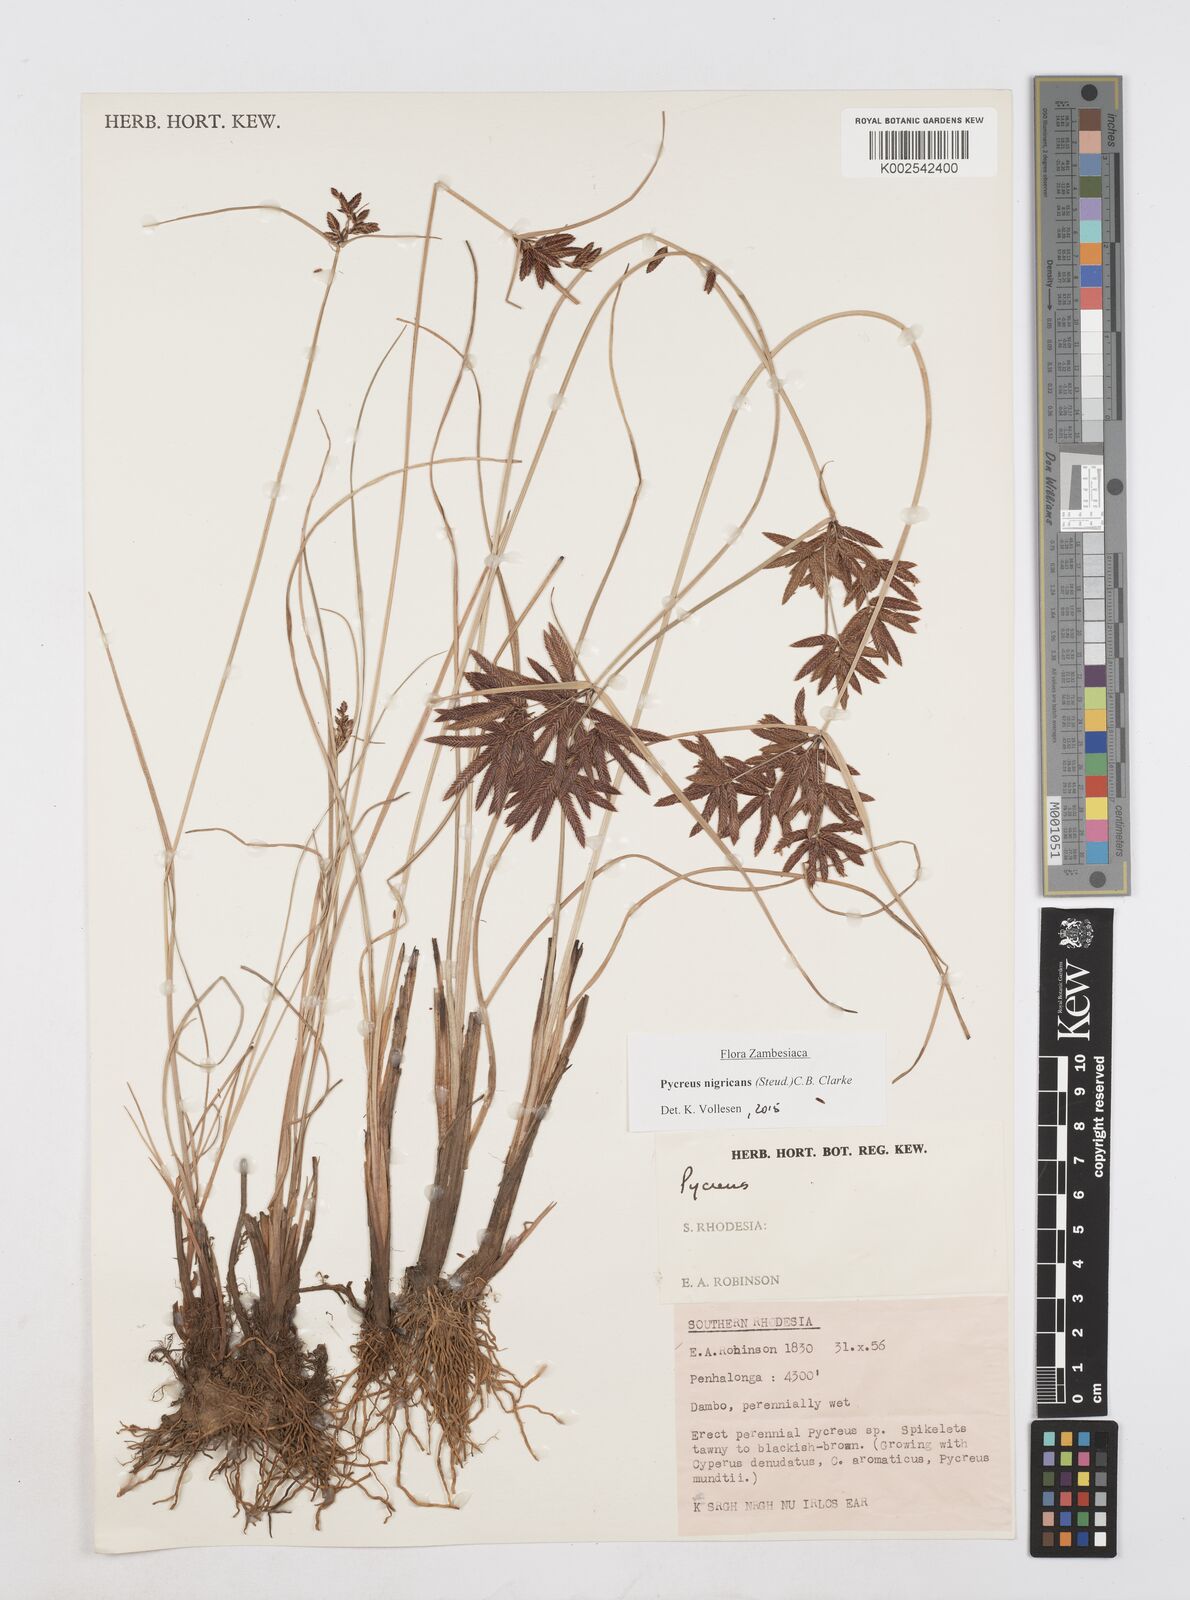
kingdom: Plantae
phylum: Tracheophyta
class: Liliopsida
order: Poales
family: Cyperaceae
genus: Cyperus
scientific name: Cyperus nigricans
